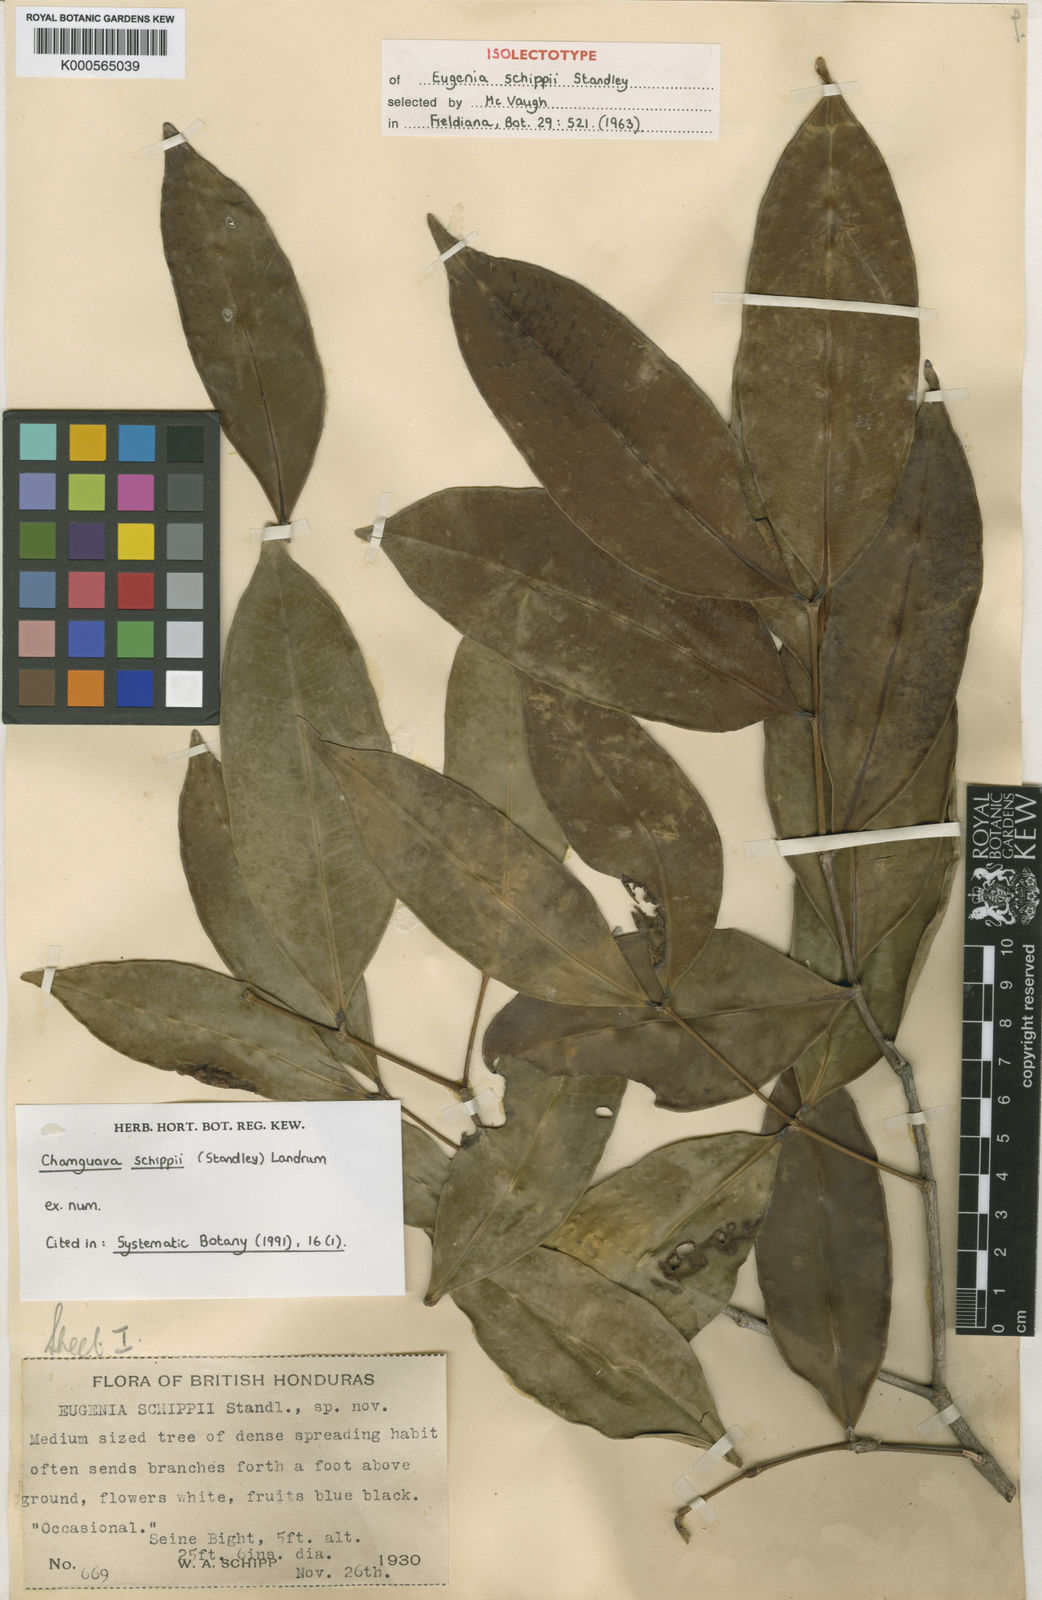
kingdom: Plantae
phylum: Tracheophyta
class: Magnoliopsida
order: Myrtales
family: Myrtaceae
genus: Chamguava
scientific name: Chamguava schippii
